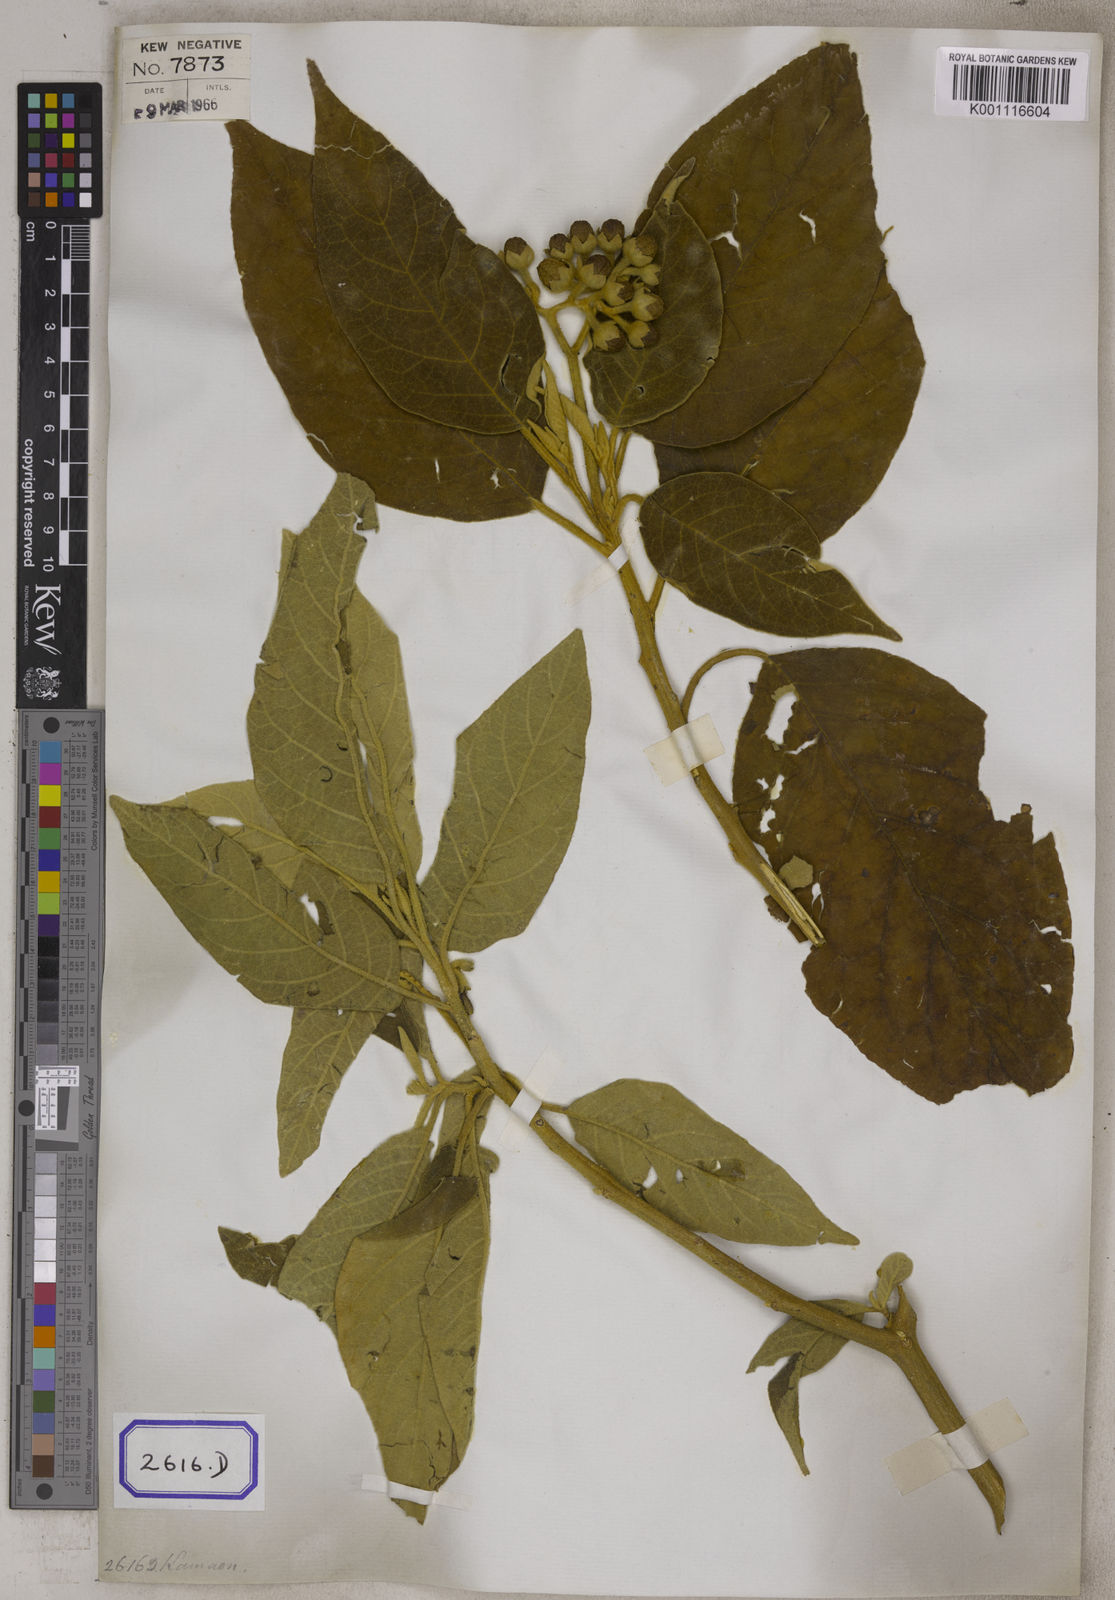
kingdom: Plantae
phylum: Tracheophyta
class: Magnoliopsida
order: Solanales
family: Solanaceae
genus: Solanum
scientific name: Solanum donianum
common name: Mullein nightshade
